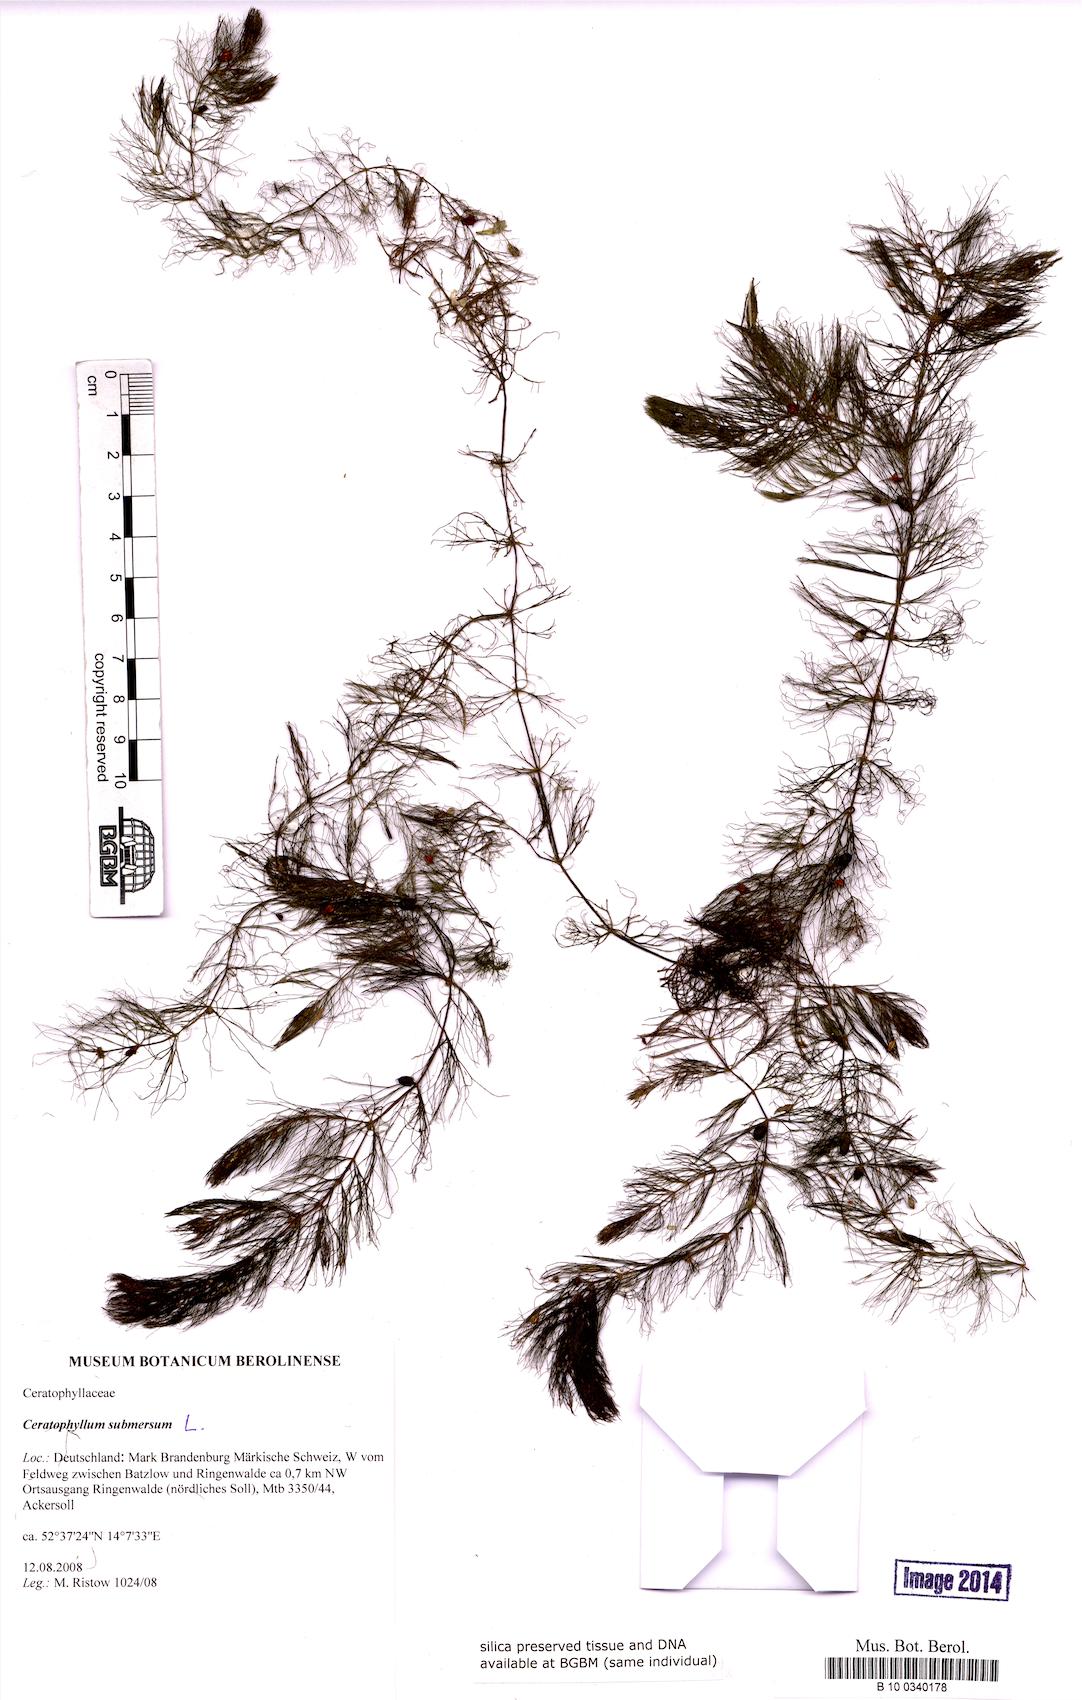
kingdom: Plantae
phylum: Tracheophyta
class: Magnoliopsida
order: Ceratophyllales
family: Ceratophyllaceae
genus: Ceratophyllum
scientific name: Ceratophyllum submersum
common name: Soft hornwort
